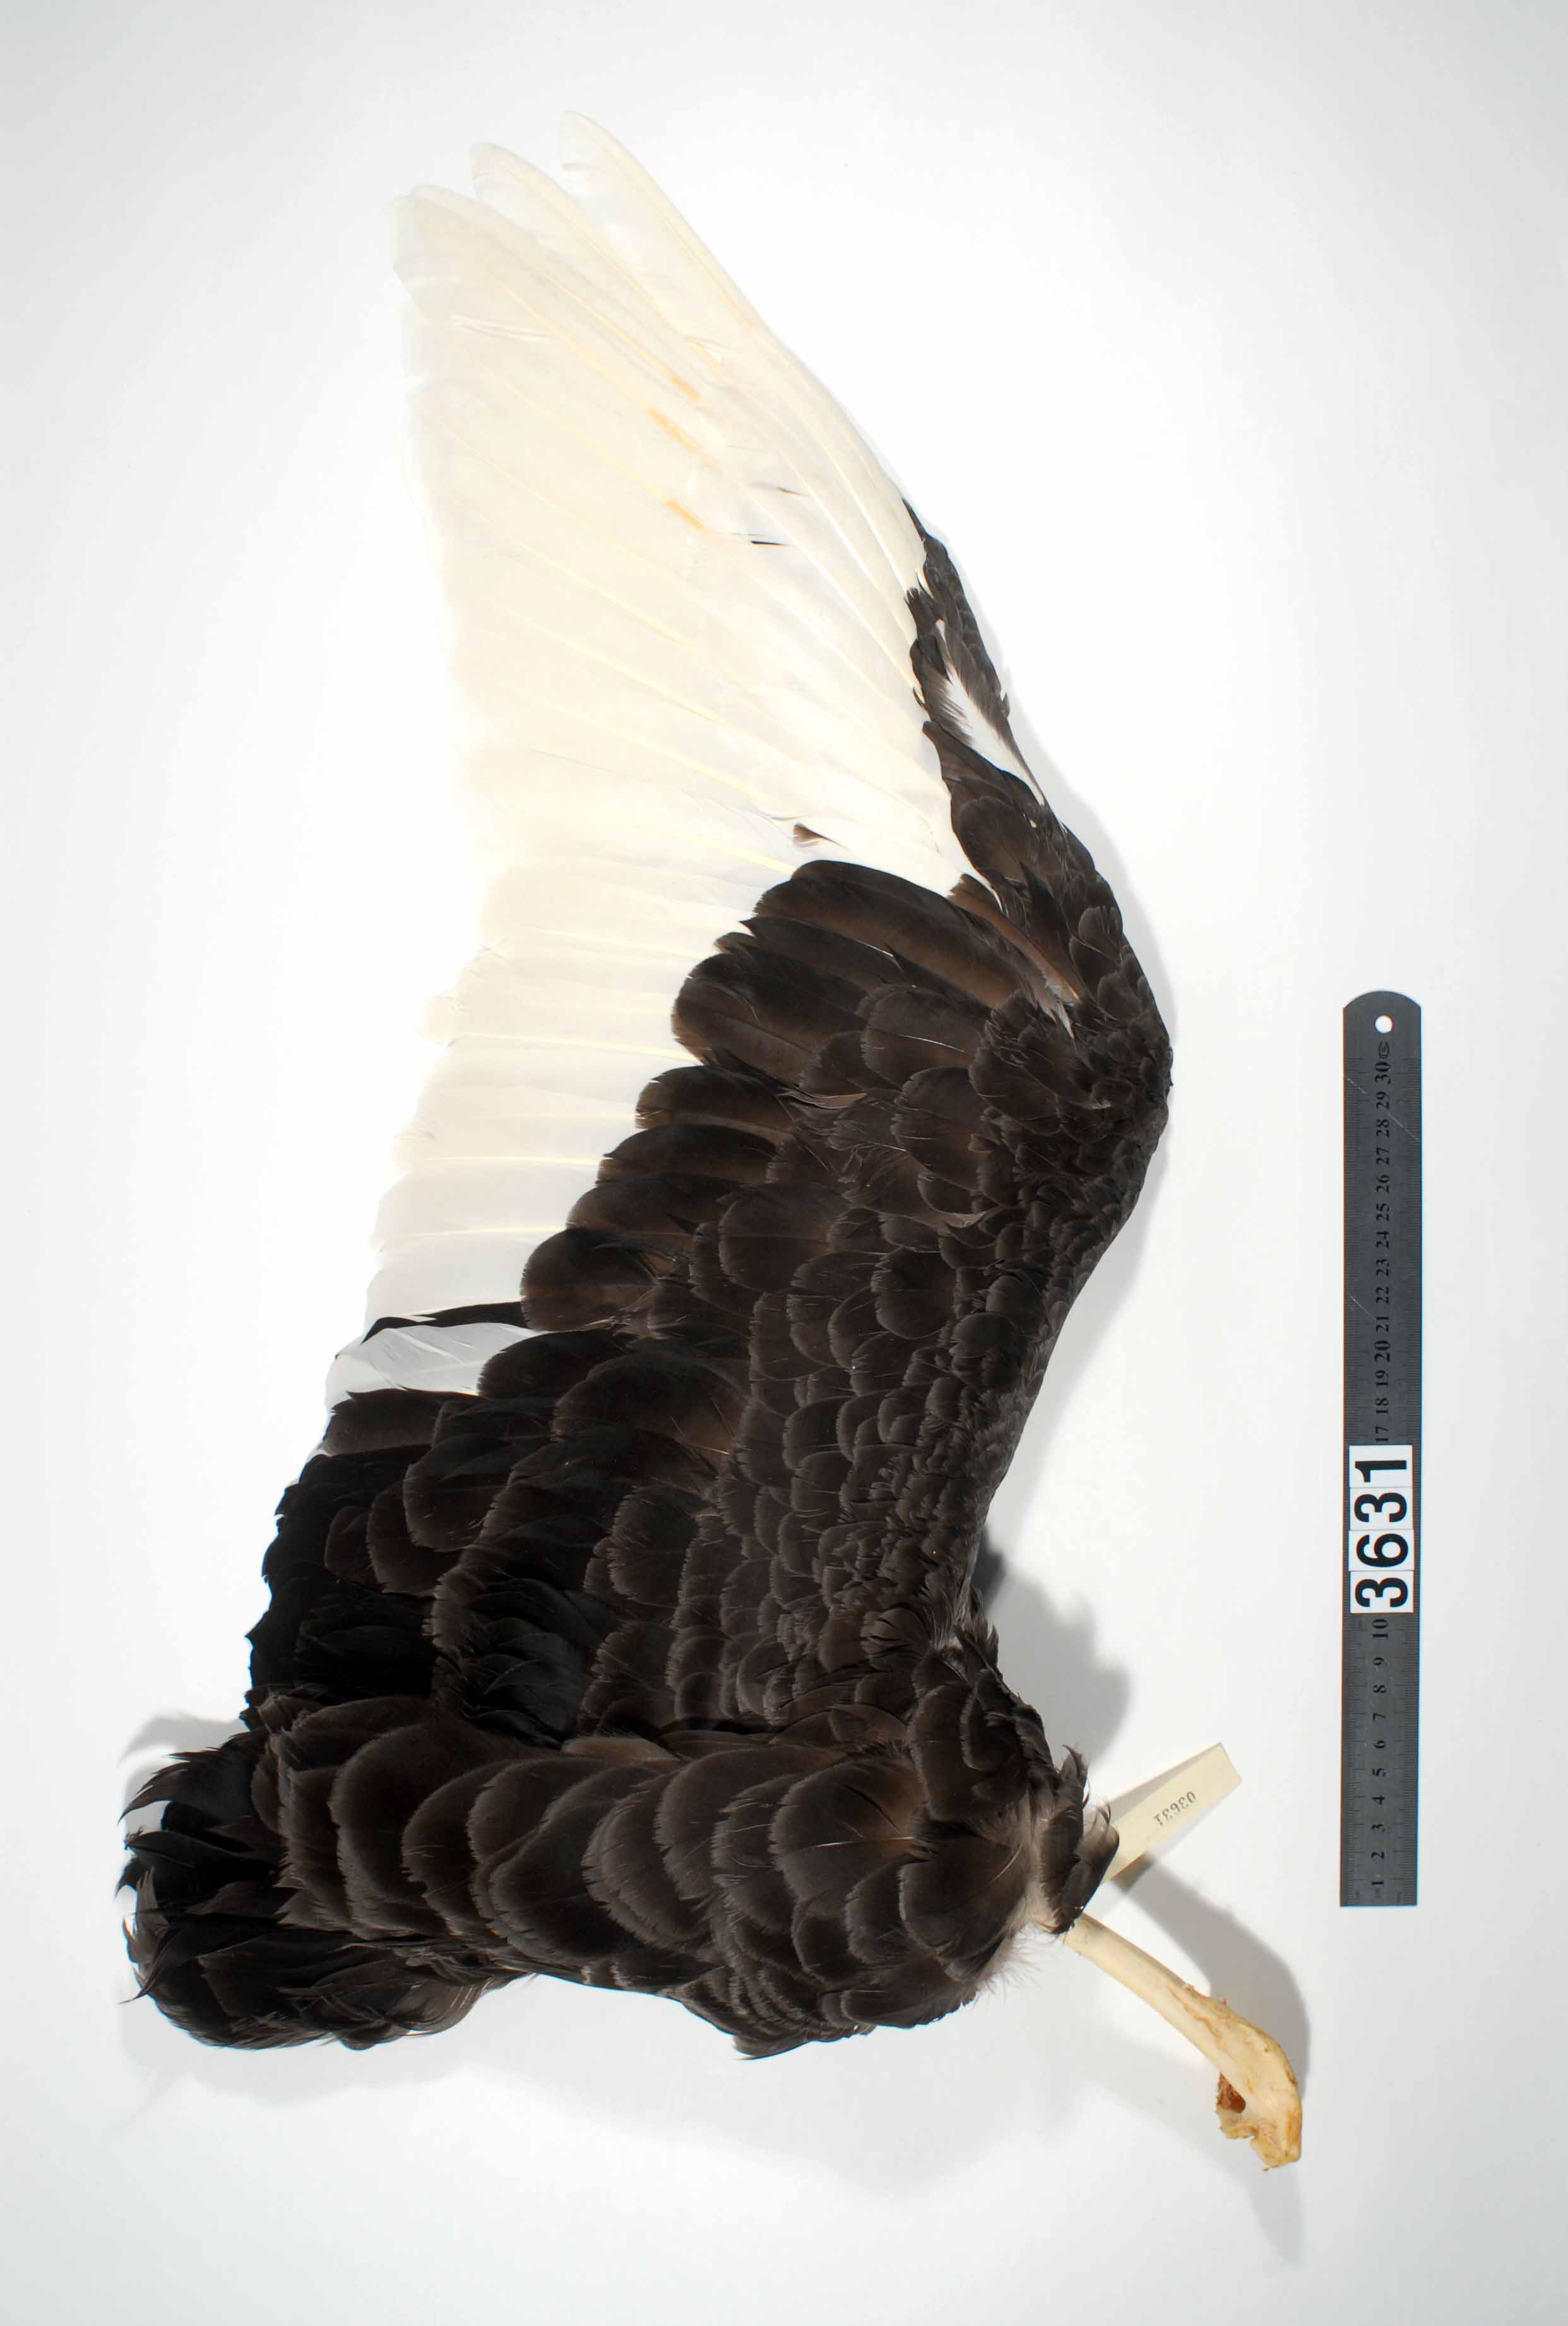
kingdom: Animalia
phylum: Chordata
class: Aves
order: Anseriformes
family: Anatidae
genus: Cygnus
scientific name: Cygnus atratus
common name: Black swan
